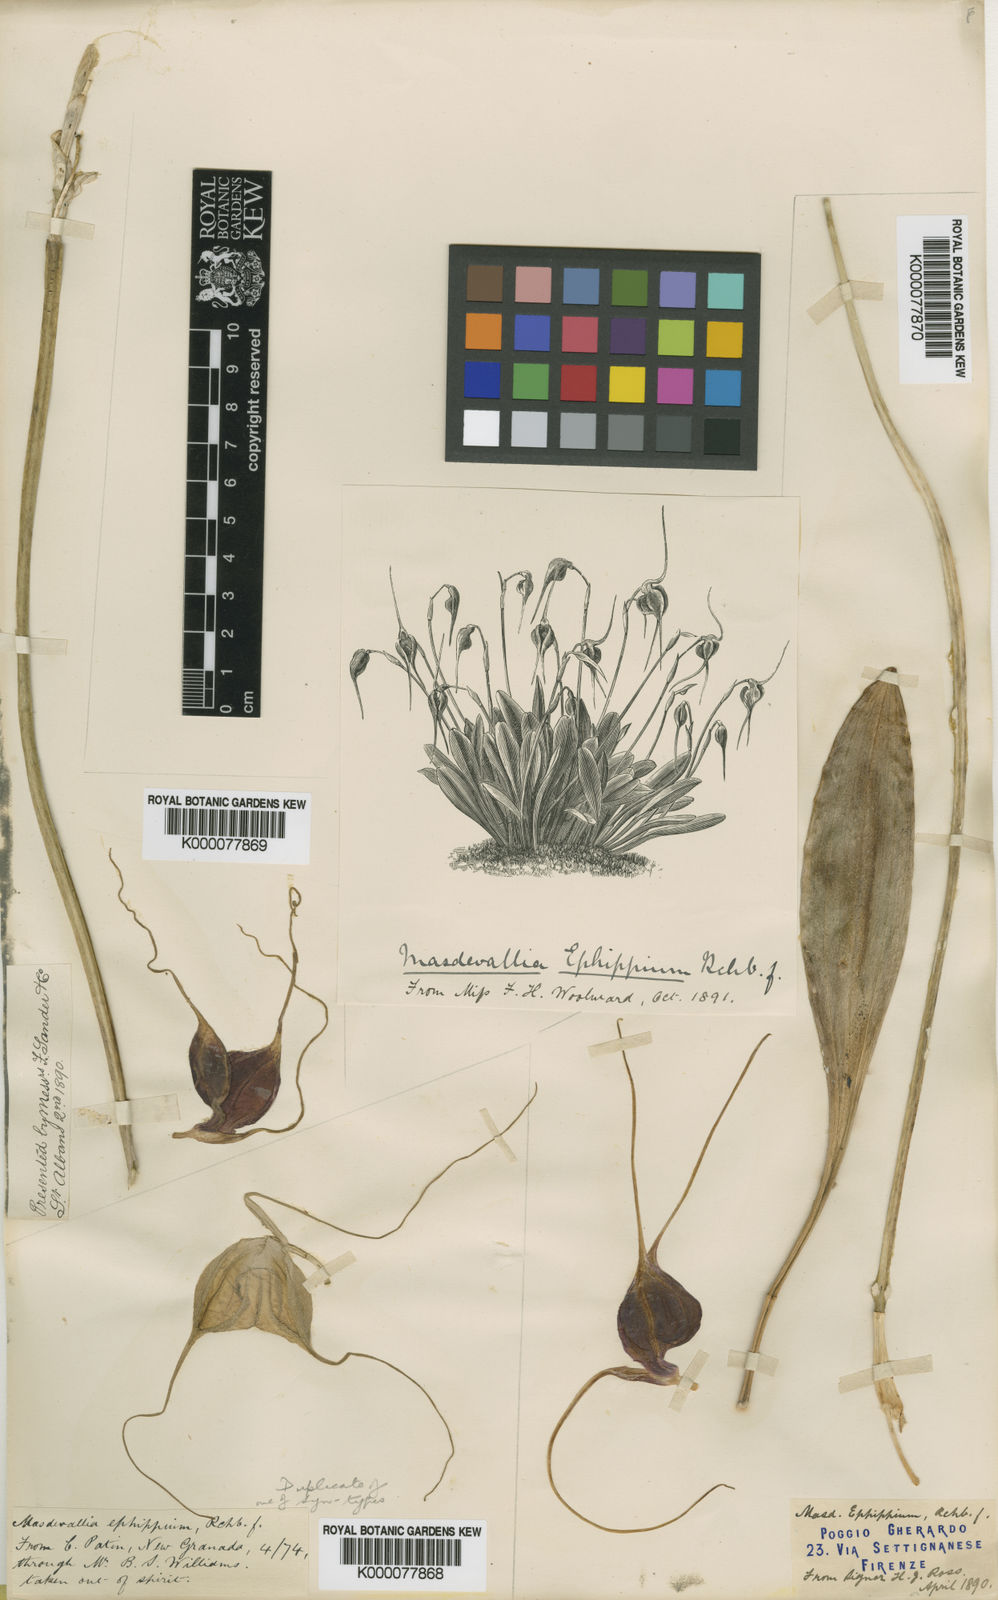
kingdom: Plantae
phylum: Tracheophyta
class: Liliopsida
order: Asparagales
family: Orchidaceae
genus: Masdevallia
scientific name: Masdevallia trochilus
